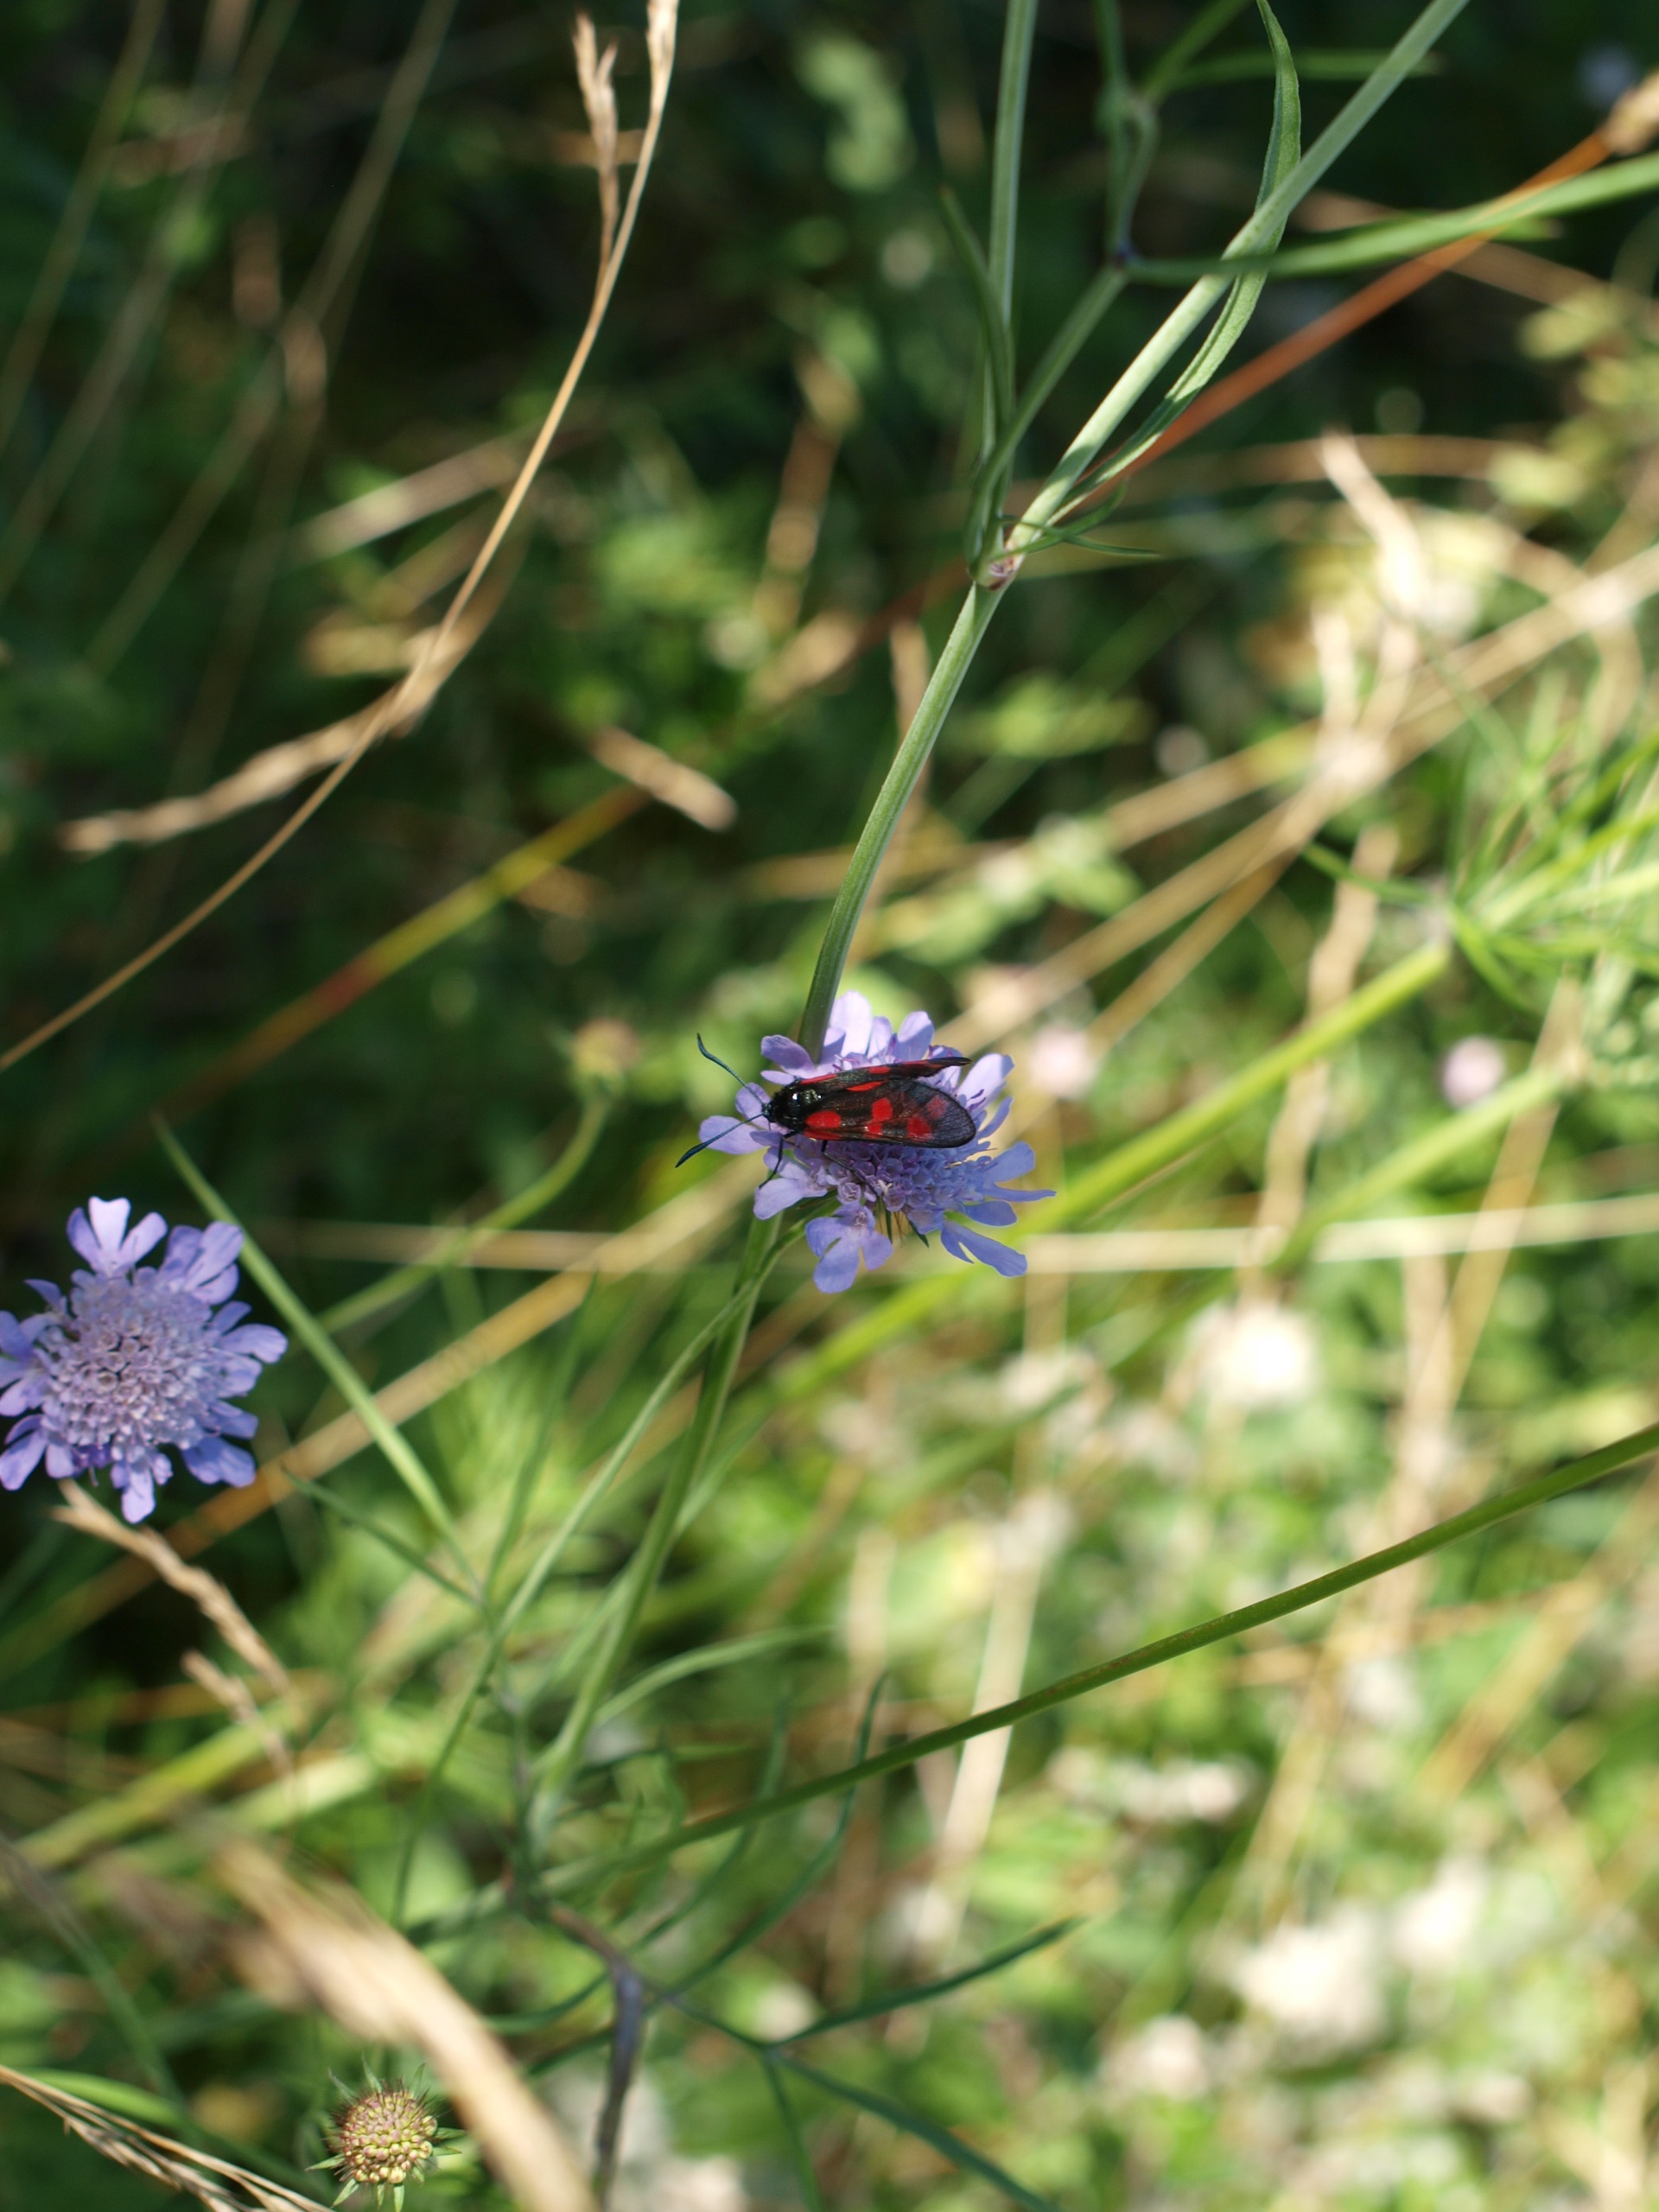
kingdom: Animalia
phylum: Arthropoda
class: Insecta
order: Lepidoptera
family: Zygaenidae
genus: Zygaena
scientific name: Zygaena filipendulae
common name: Seksplettet køllesværmer
